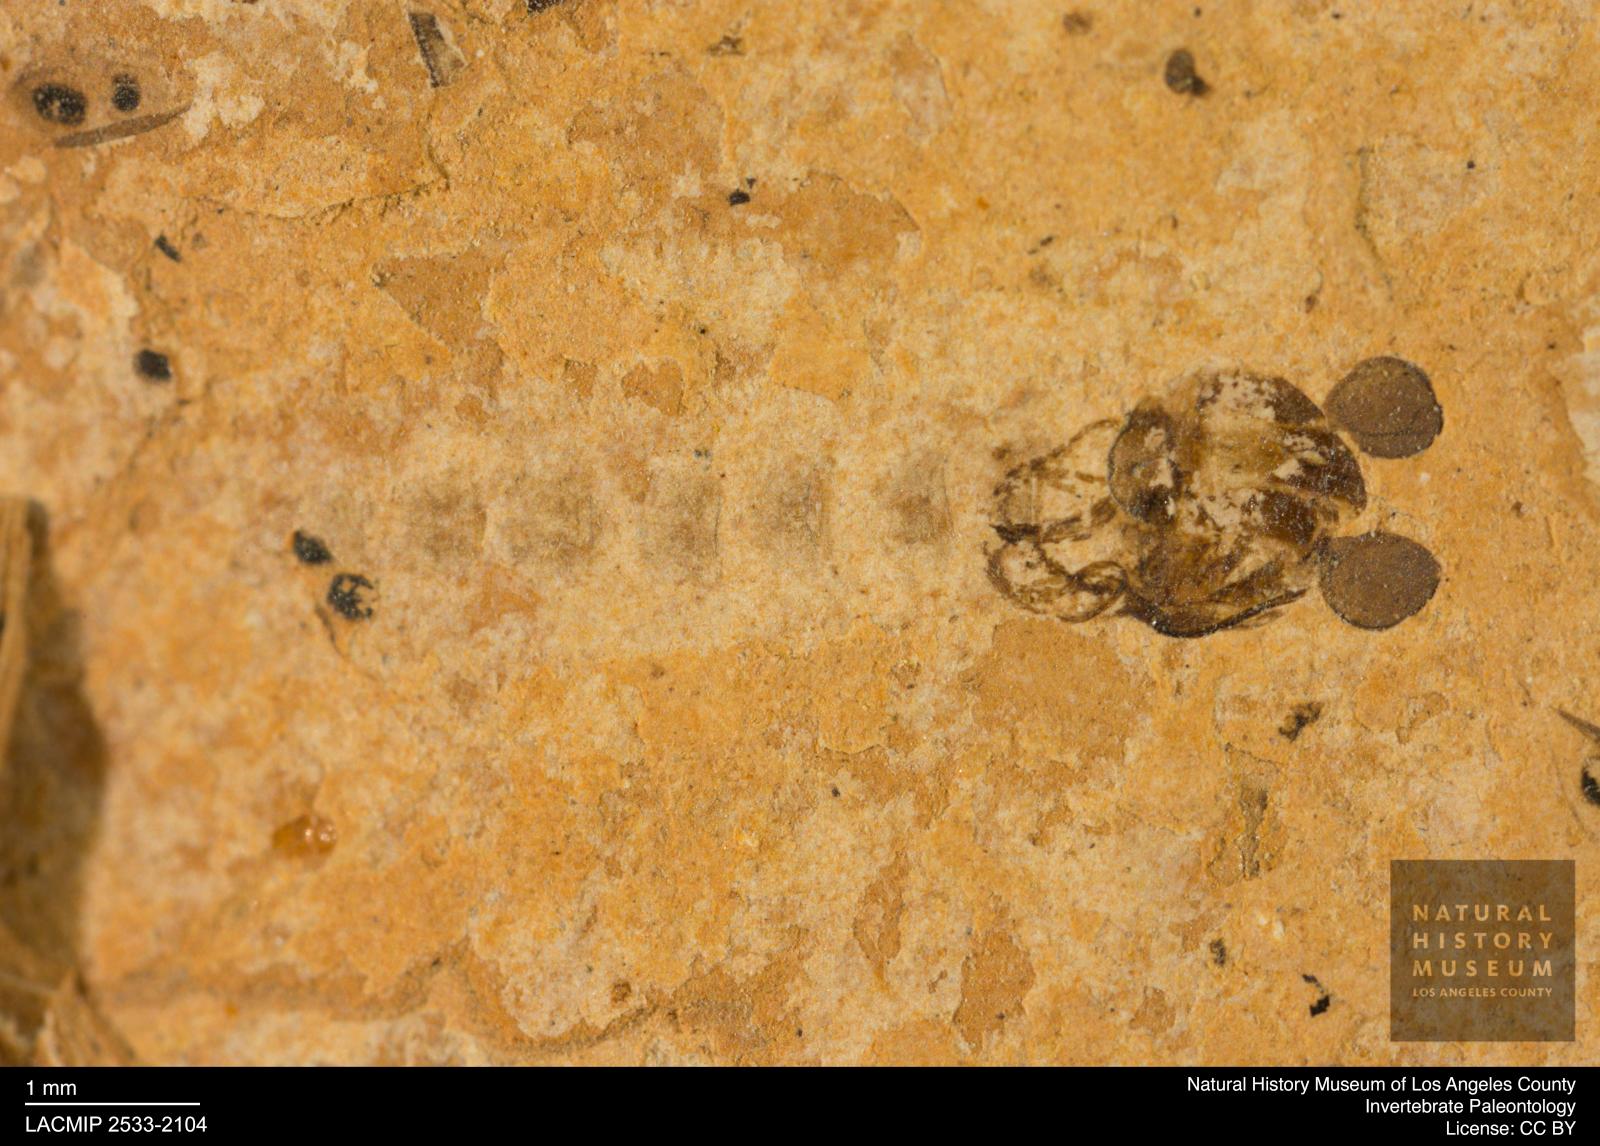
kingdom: Animalia
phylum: Arthropoda
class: Insecta
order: Diptera
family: Chironomidae
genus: Pelopiina
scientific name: Pelopiina
